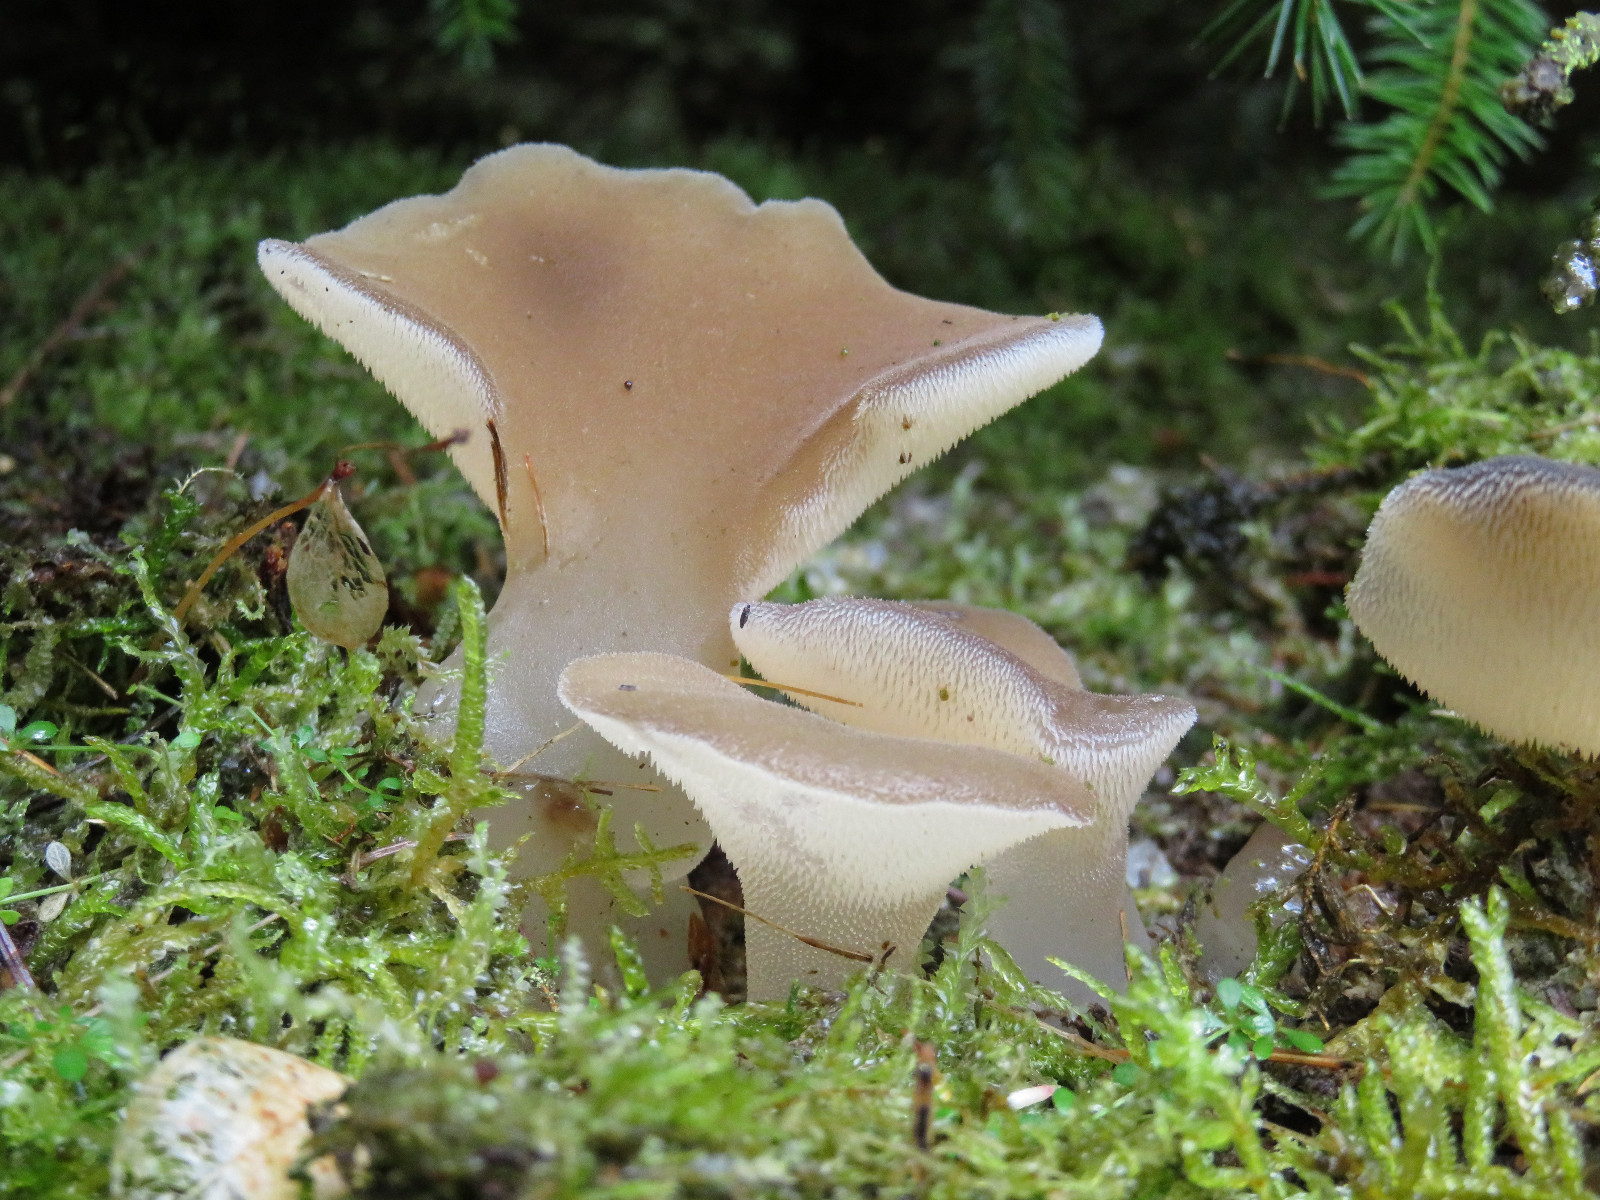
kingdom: Fungi
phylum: Basidiomycota
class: Agaricomycetes
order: Auriculariales
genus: Pseudohydnum
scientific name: Pseudohydnum gelatinosum
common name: bævretand
